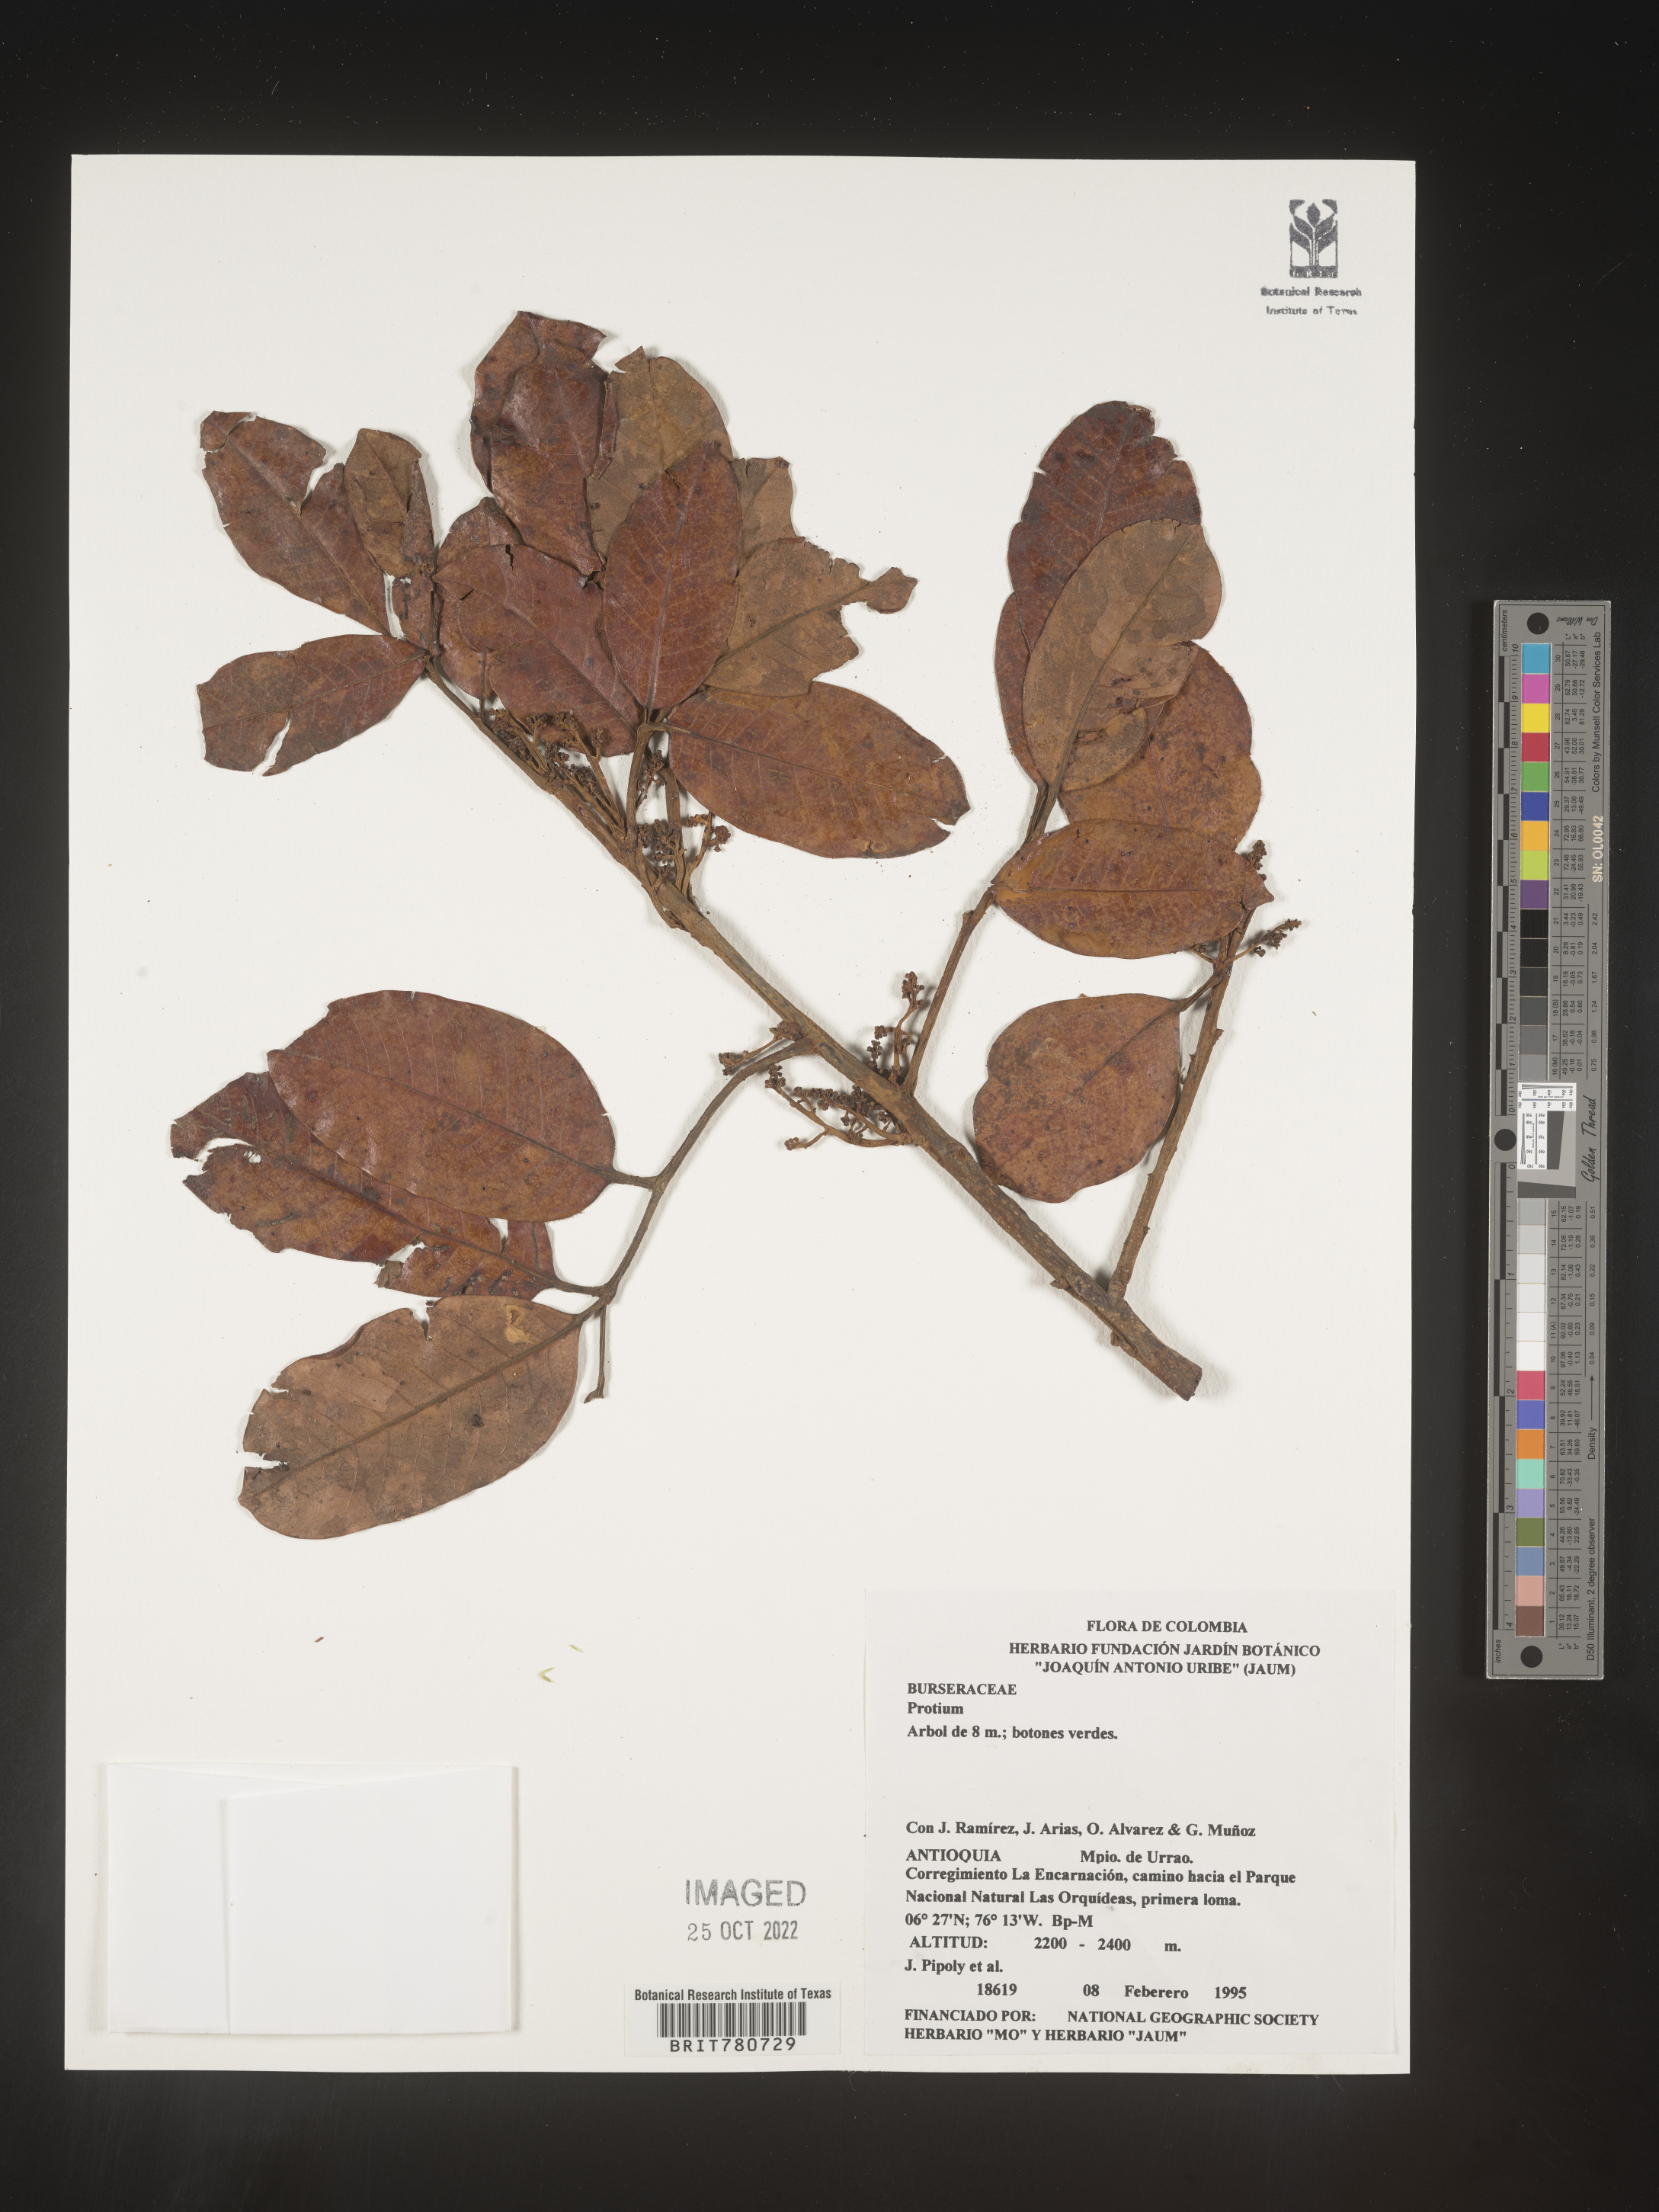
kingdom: Plantae
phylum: Tracheophyta
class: Magnoliopsida
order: Sapindales
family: Burseraceae
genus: Protium
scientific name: Protium
